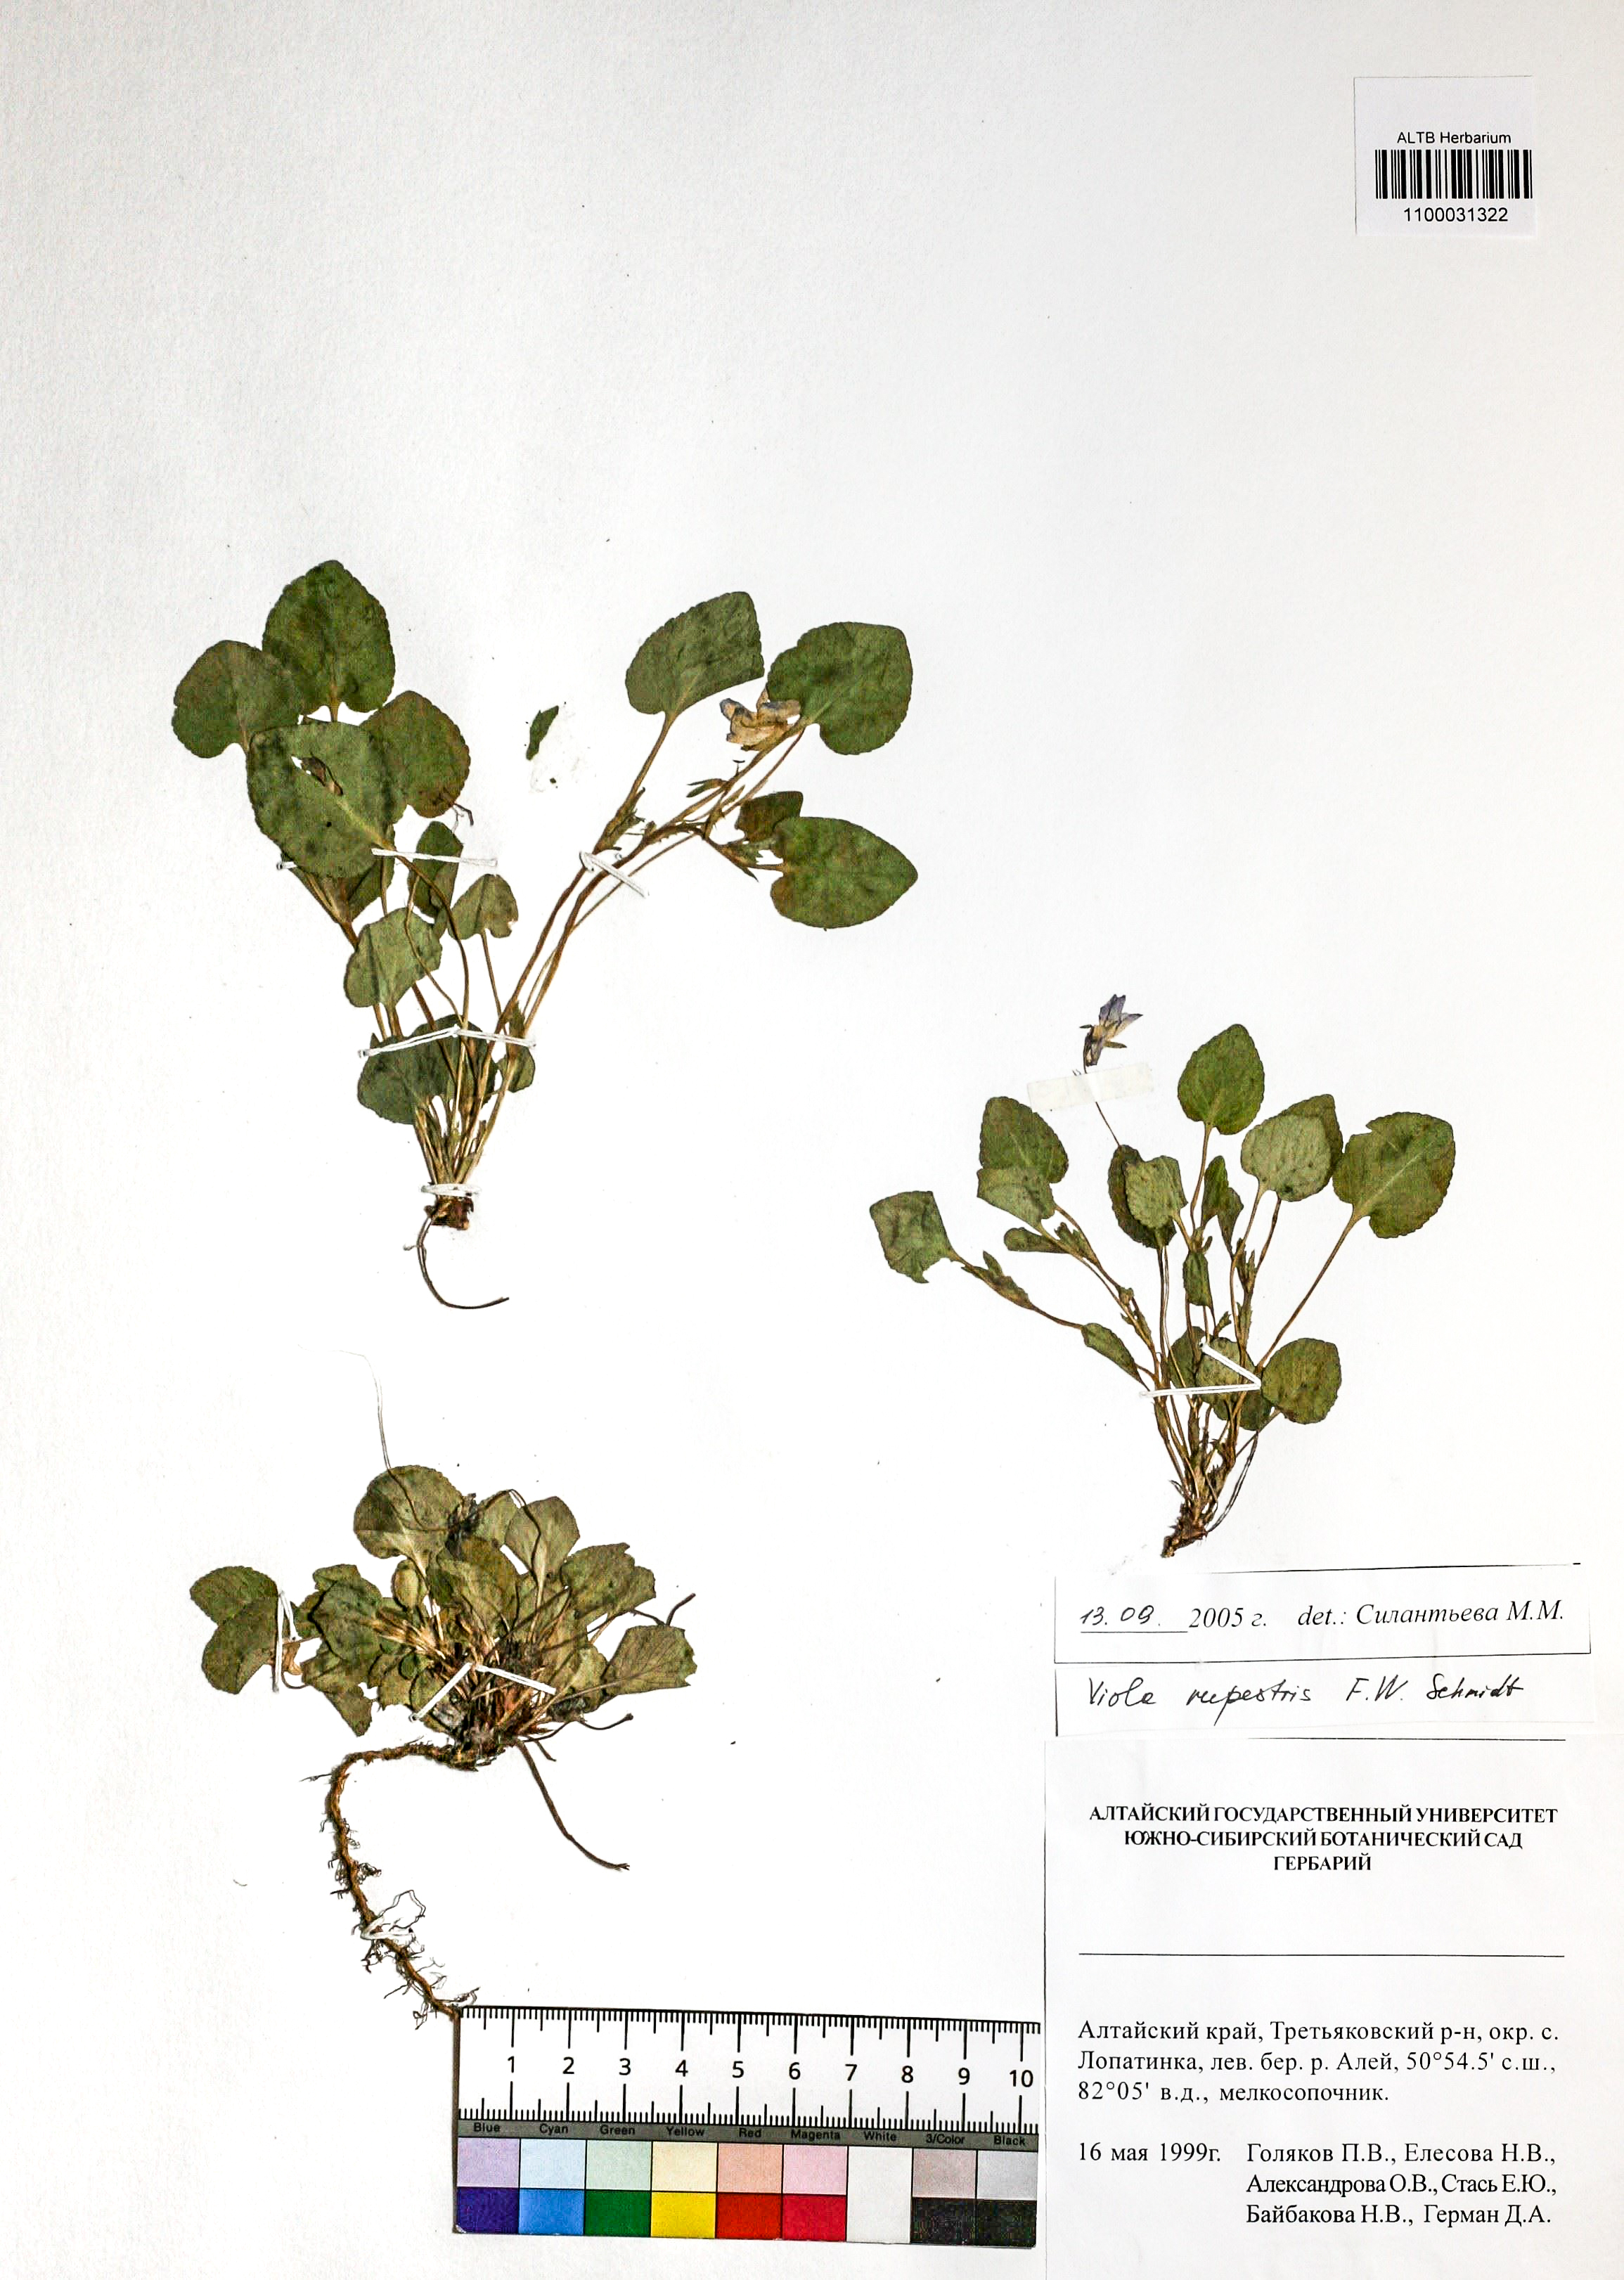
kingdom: Plantae
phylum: Tracheophyta
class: Magnoliopsida
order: Malpighiales
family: Violaceae
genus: Viola
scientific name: Viola rupestris
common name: Teesdale violet
